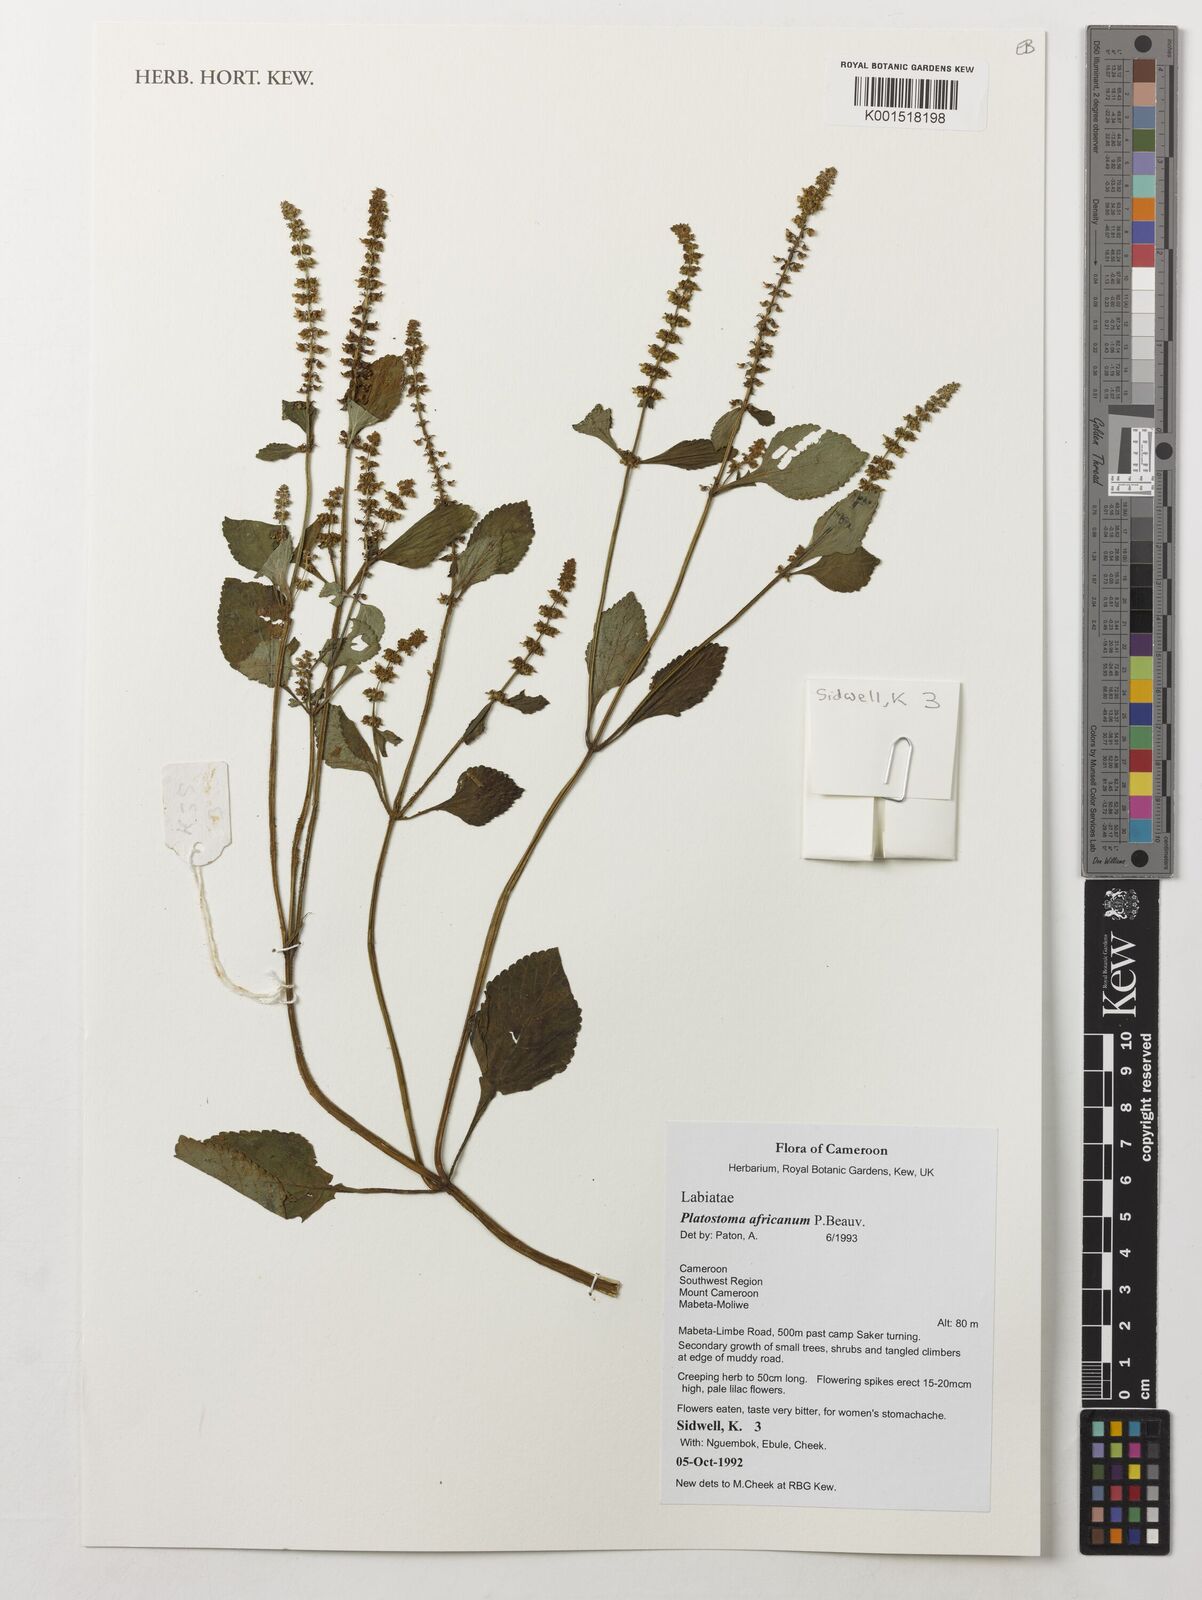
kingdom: Plantae
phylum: Tracheophyta
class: Magnoliopsida
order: Lamiales
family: Lamiaceae
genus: Platostoma
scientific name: Platostoma africanum
